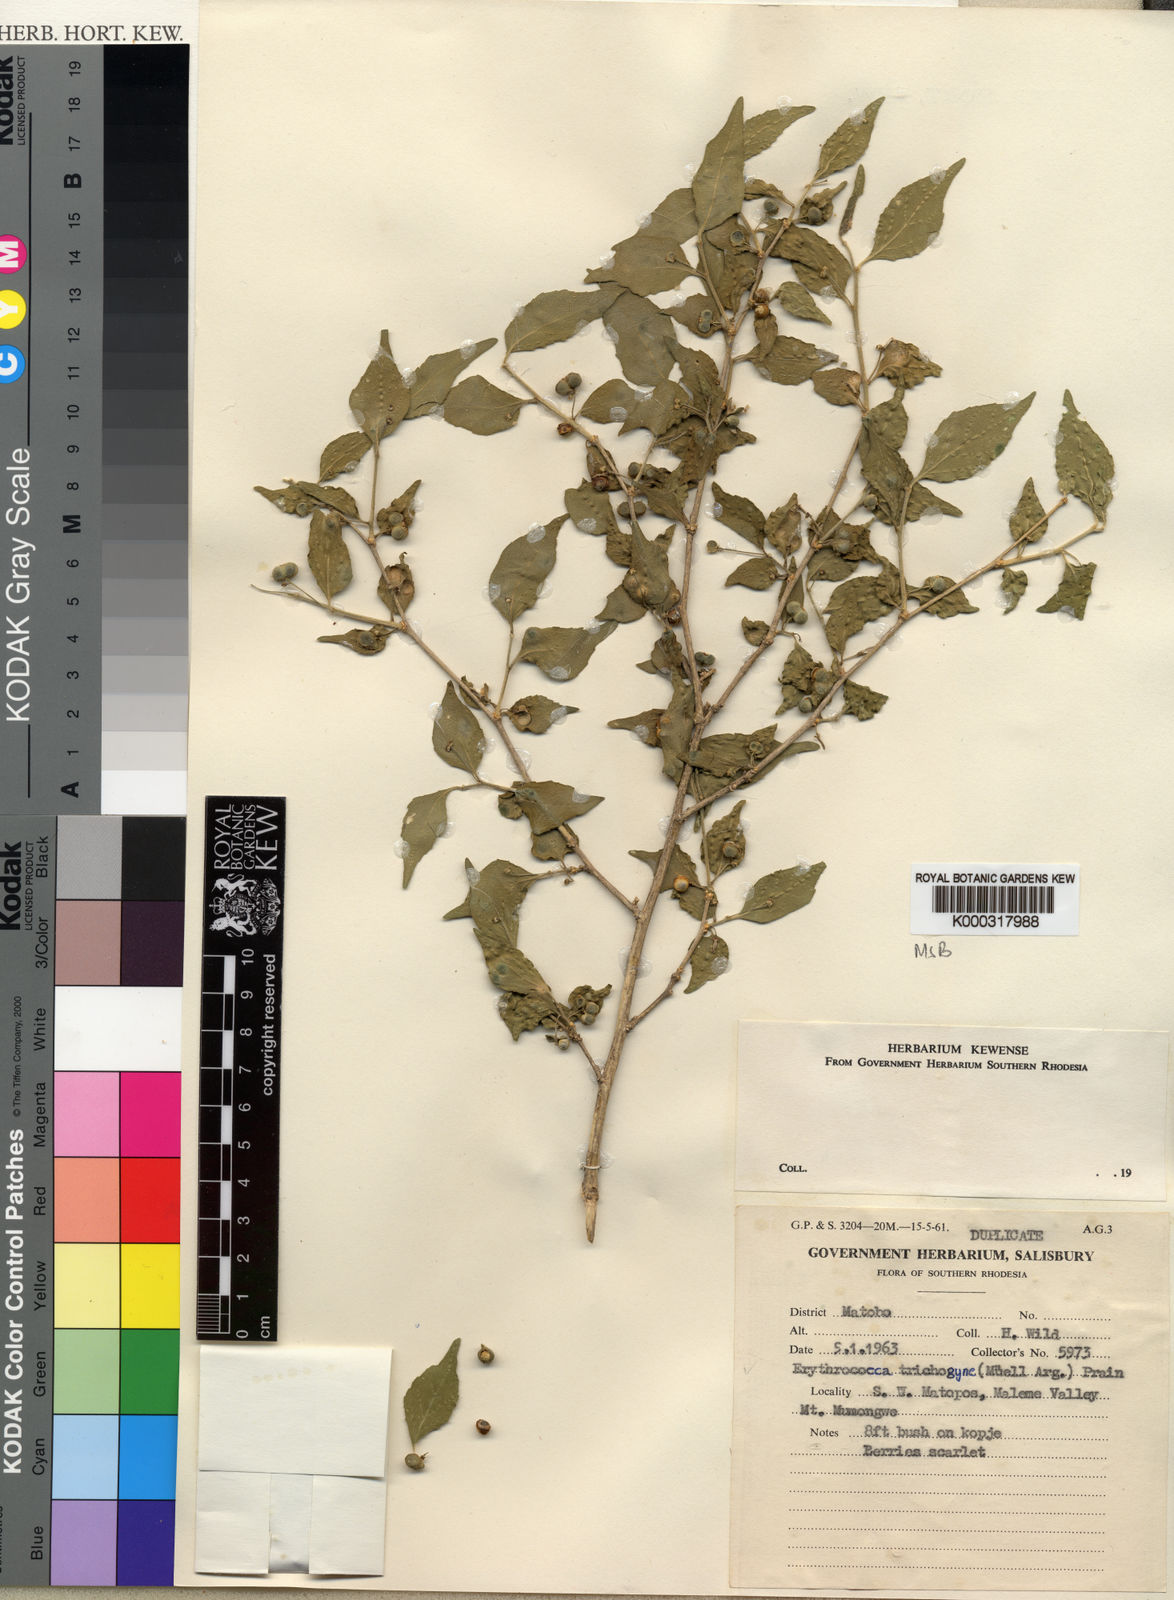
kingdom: Plantae
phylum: Tracheophyta
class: Magnoliopsida
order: Malpighiales
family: Euphorbiaceae
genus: Erythrococca
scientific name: Erythrococca trichogyne
